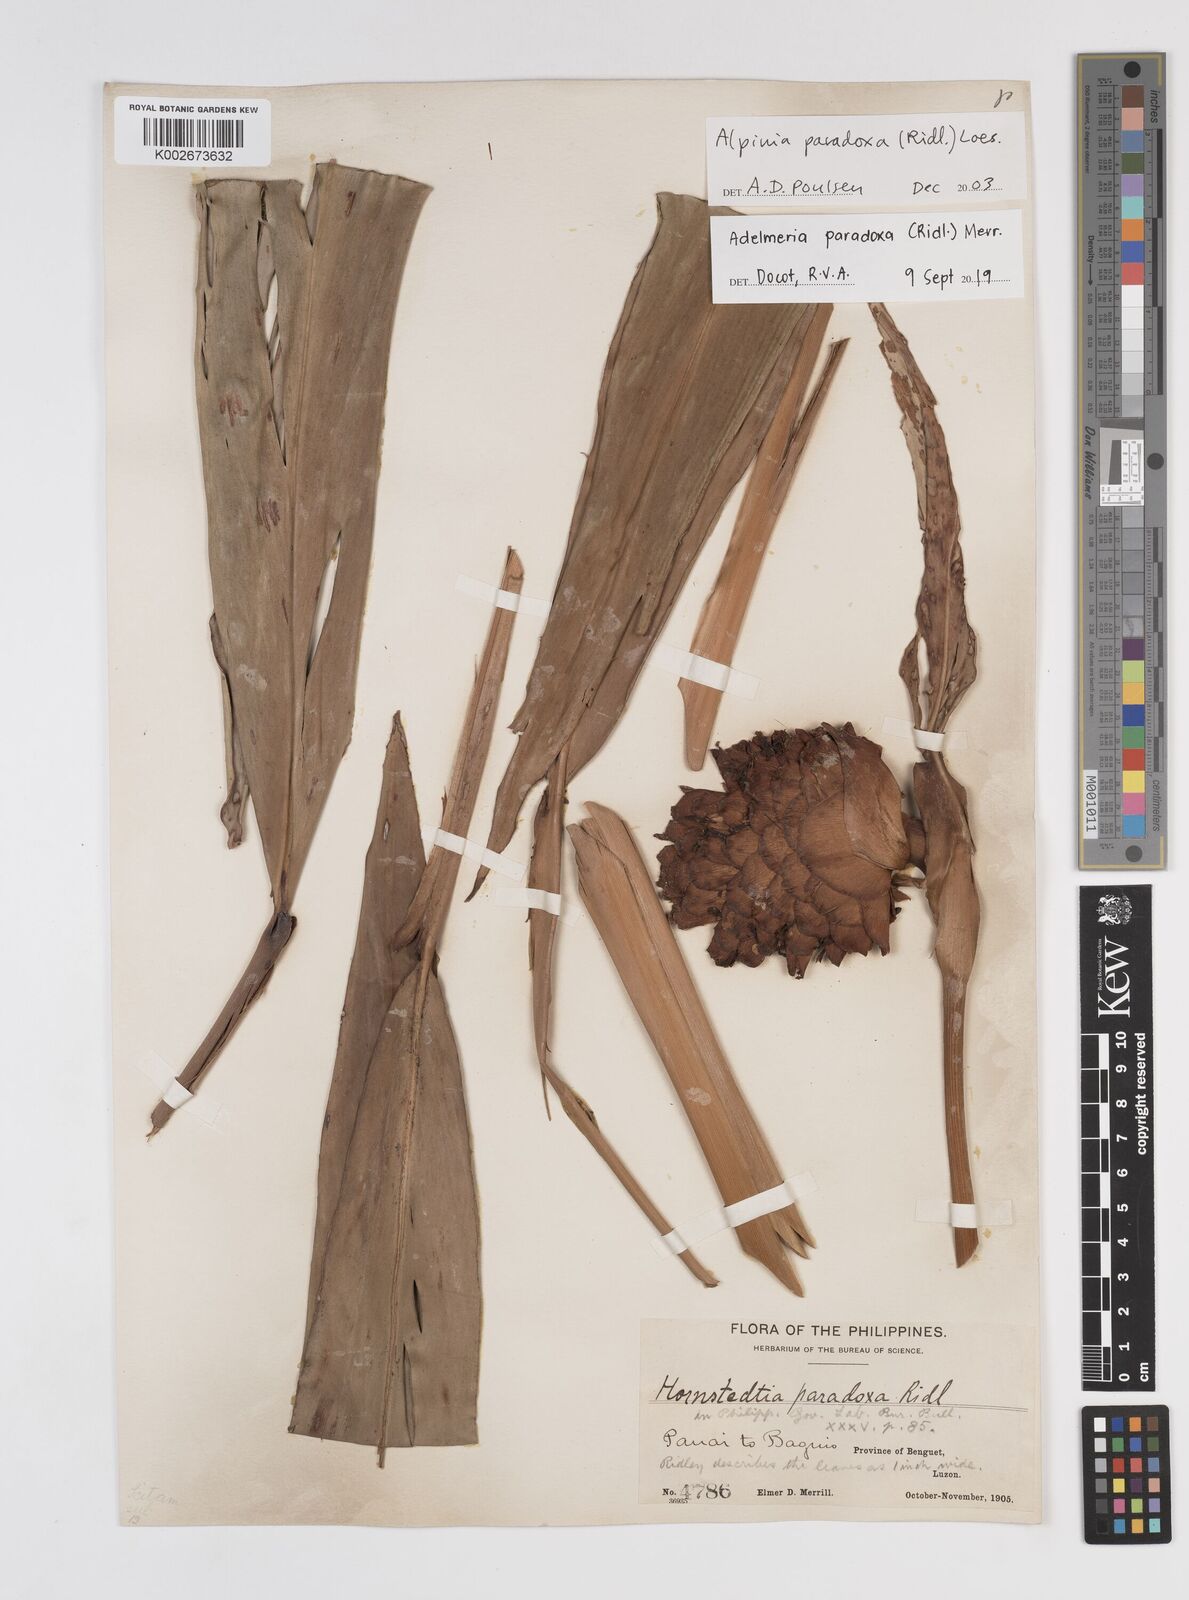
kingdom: Plantae
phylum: Tracheophyta
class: Liliopsida
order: Zingiberales
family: Zingiberaceae
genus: Adelmeria
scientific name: Adelmeria paradoxa
